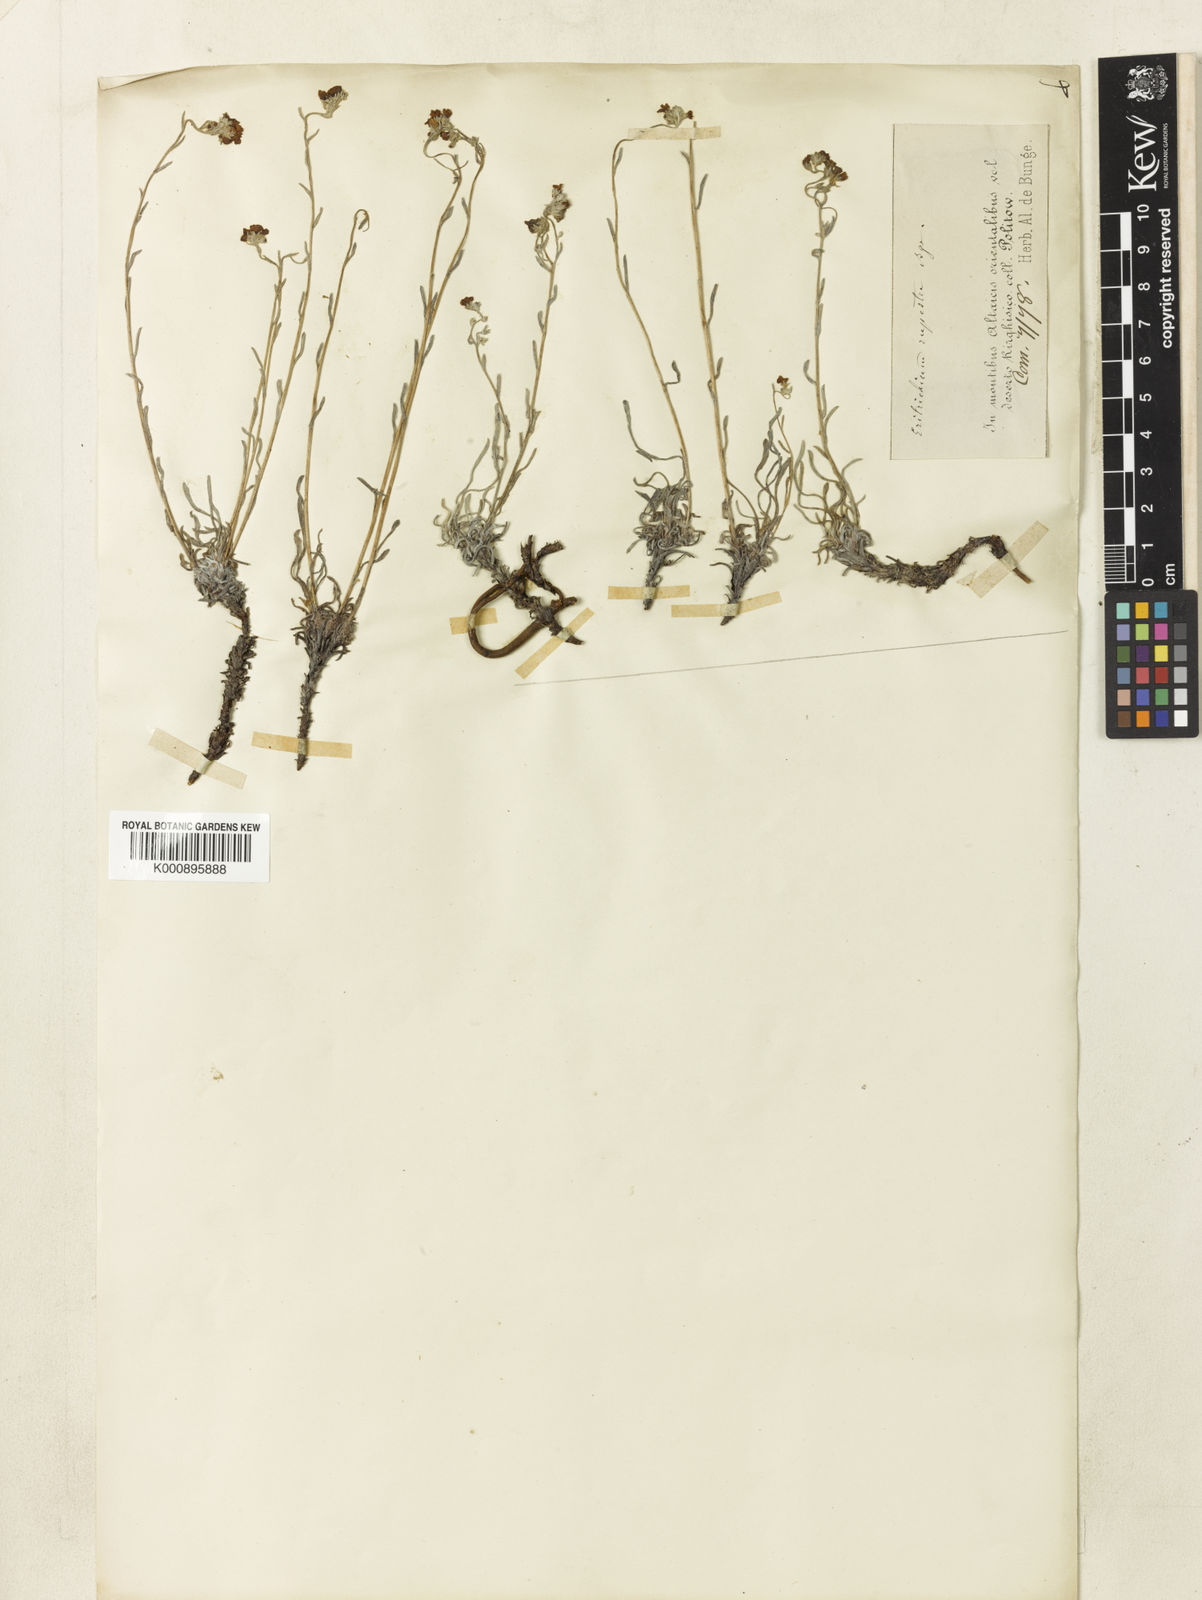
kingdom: Plantae
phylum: Tracheophyta
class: Magnoliopsida
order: Boraginales
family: Boraginaceae
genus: Eritrichium
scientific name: Eritrichium rupestre
